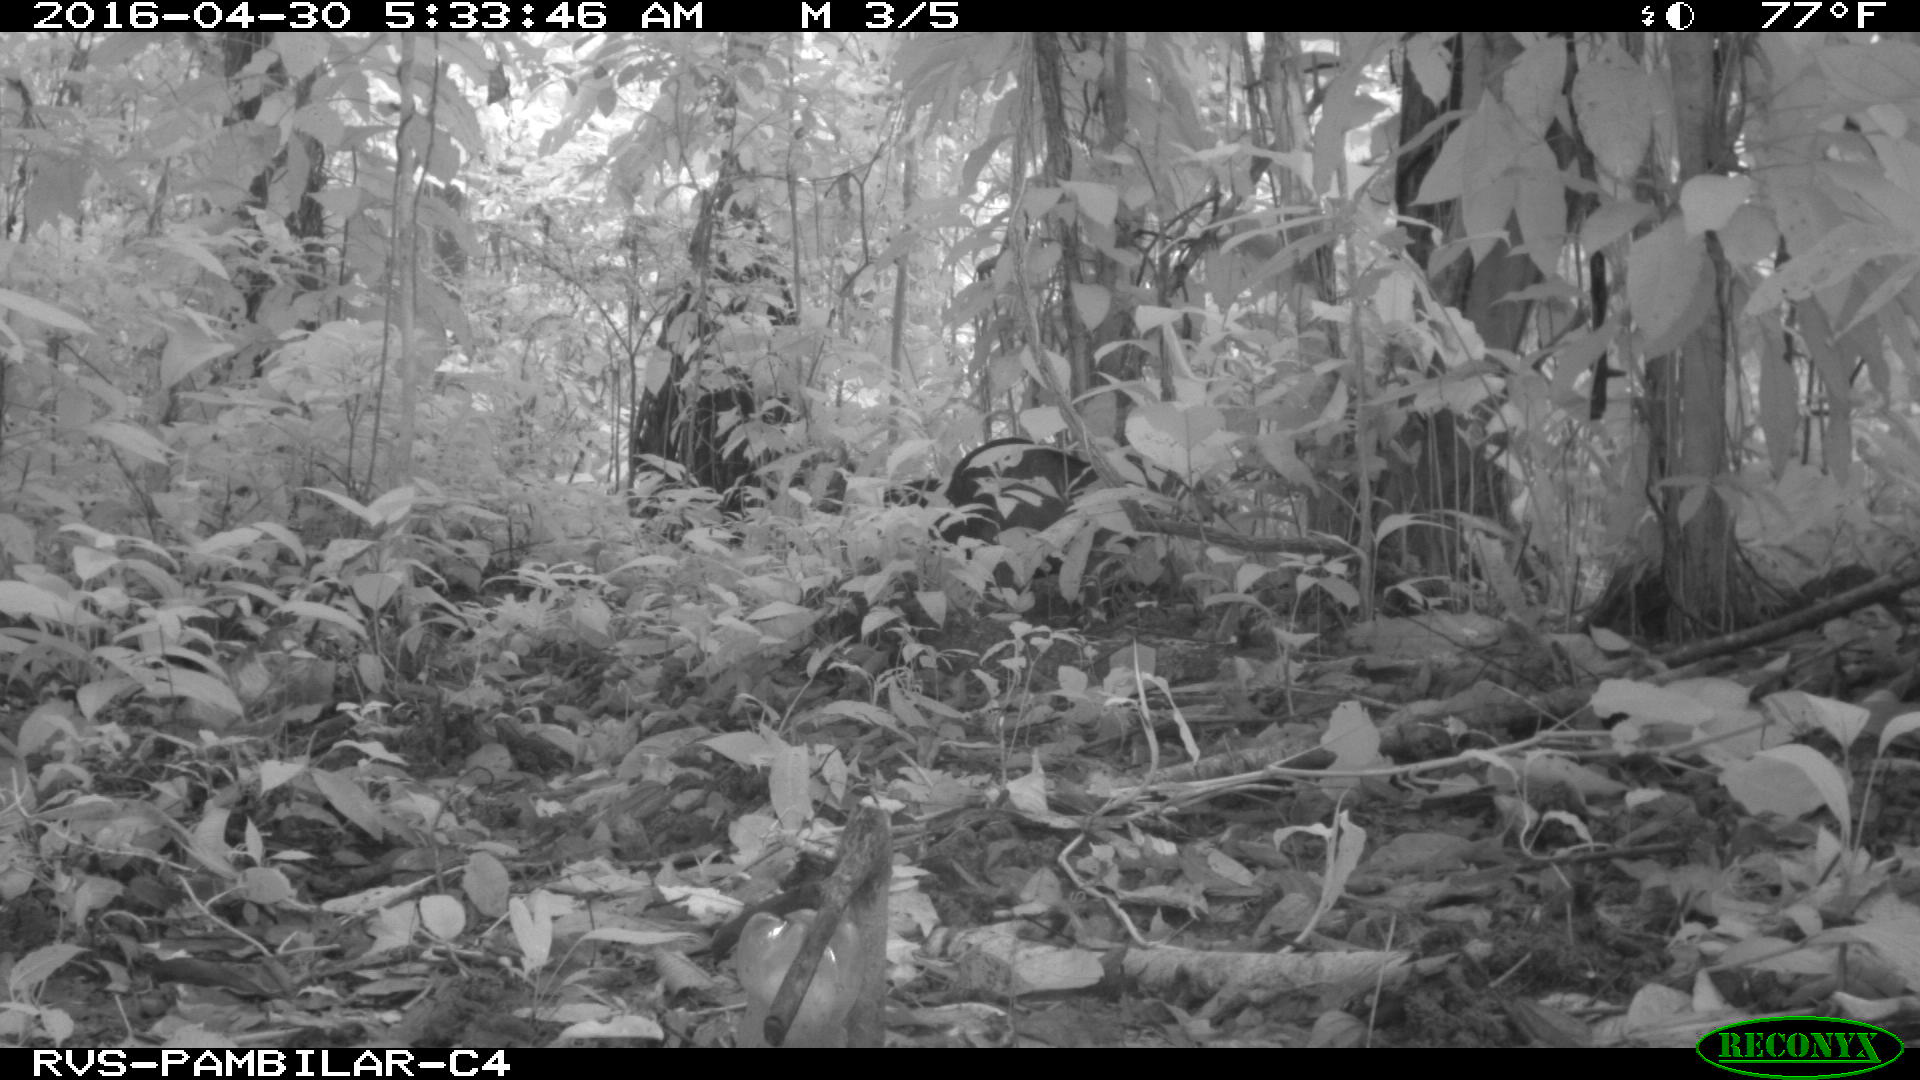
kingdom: Animalia
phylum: Chordata
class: Mammalia
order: Artiodactyla
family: Tayassuidae
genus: Tayassu
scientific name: Tayassu pecari
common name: White-lipped peccary
